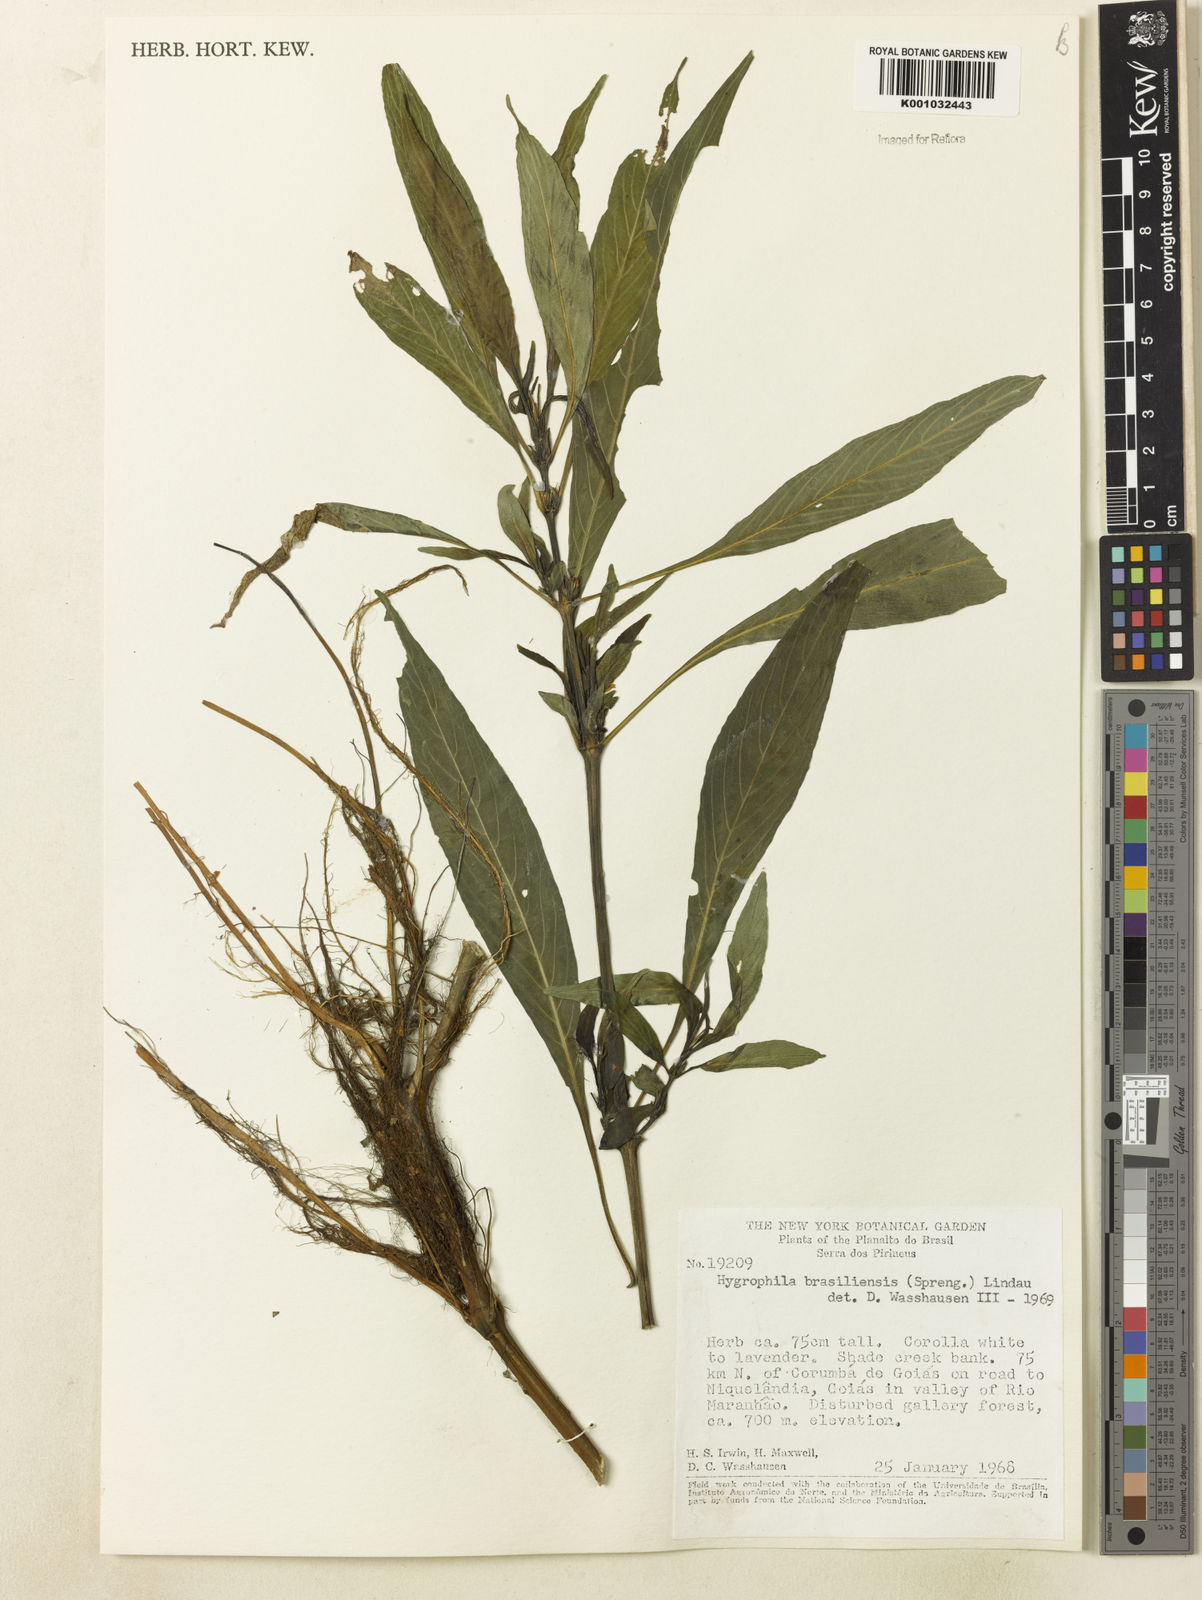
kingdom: Plantae
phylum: Tracheophyta
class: Magnoliopsida
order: Lamiales
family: Acanthaceae
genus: Hygrophila
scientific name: Hygrophila costata
